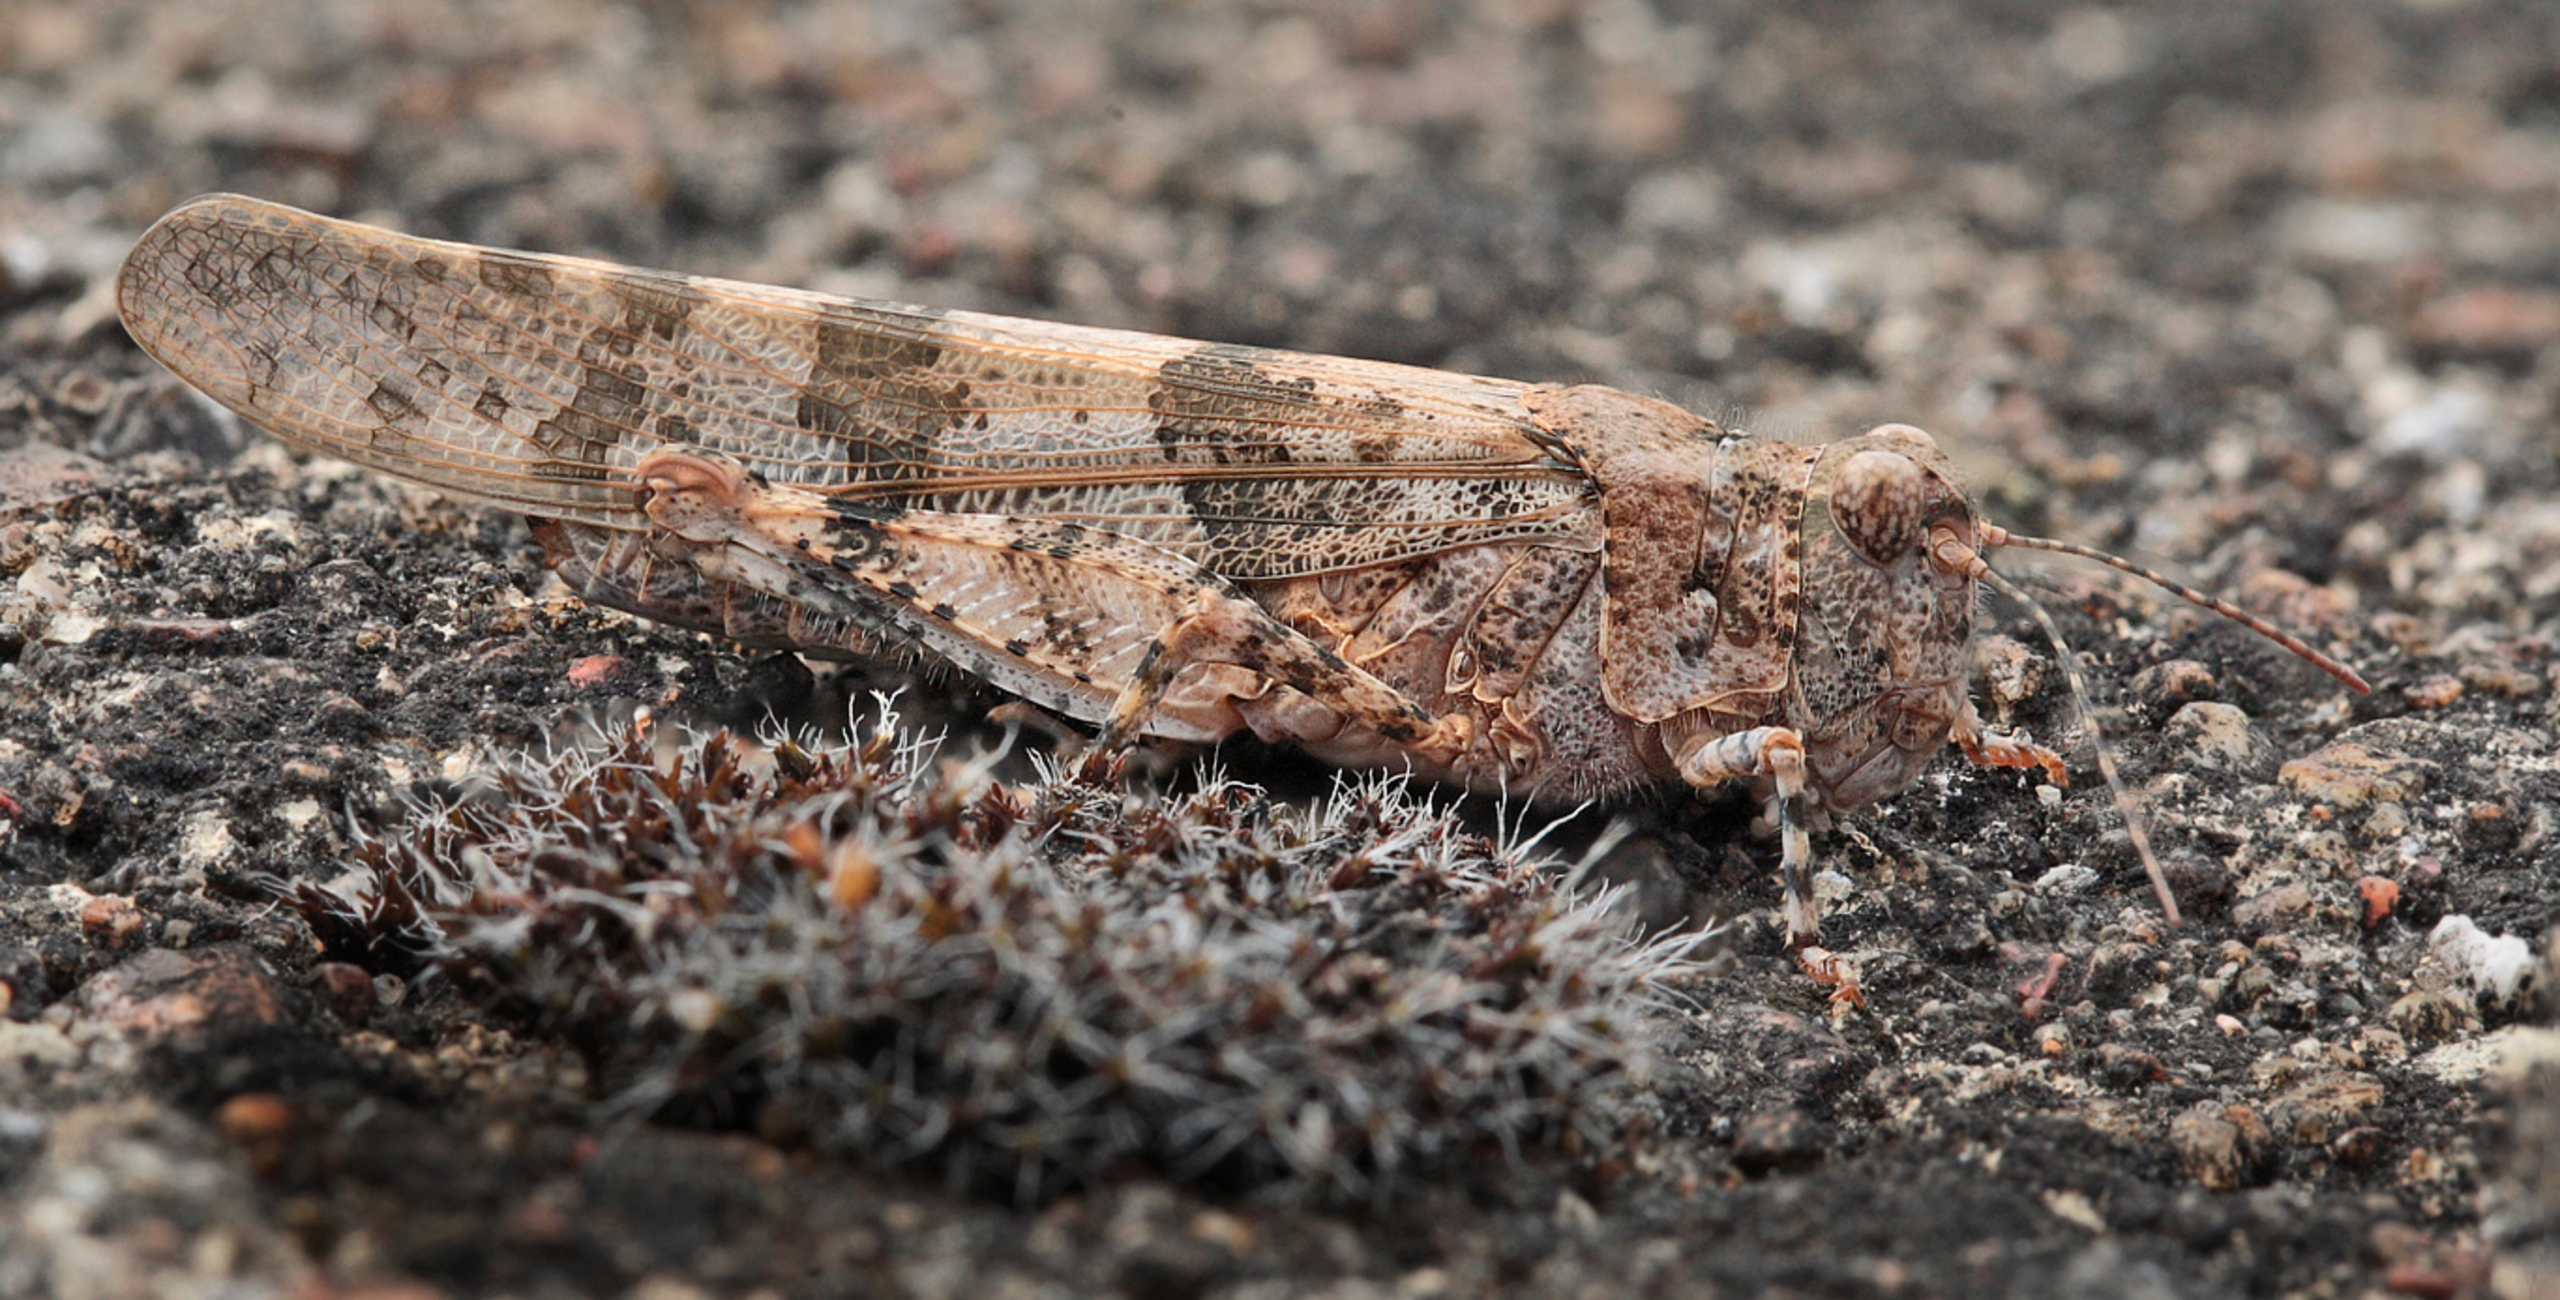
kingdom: Animalia
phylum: Arthropoda
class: Insecta
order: Orthoptera
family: Acrididae
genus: Sphingonotus
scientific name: Sphingonotus caerulans
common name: Blåvinget steppegræshoppe
